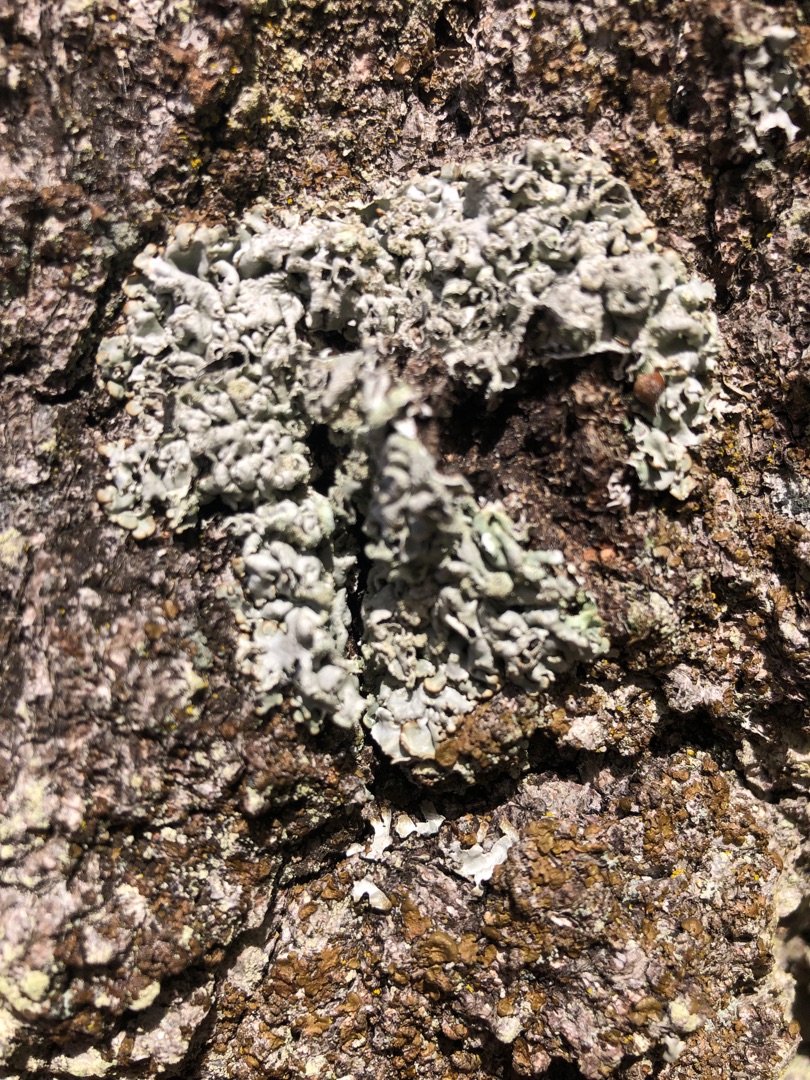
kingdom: Fungi
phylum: Ascomycota
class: Lecanoromycetes
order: Lecanorales
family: Parmeliaceae
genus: Hypogymnia
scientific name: Hypogymnia physodes
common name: Almindelig kvistlav
